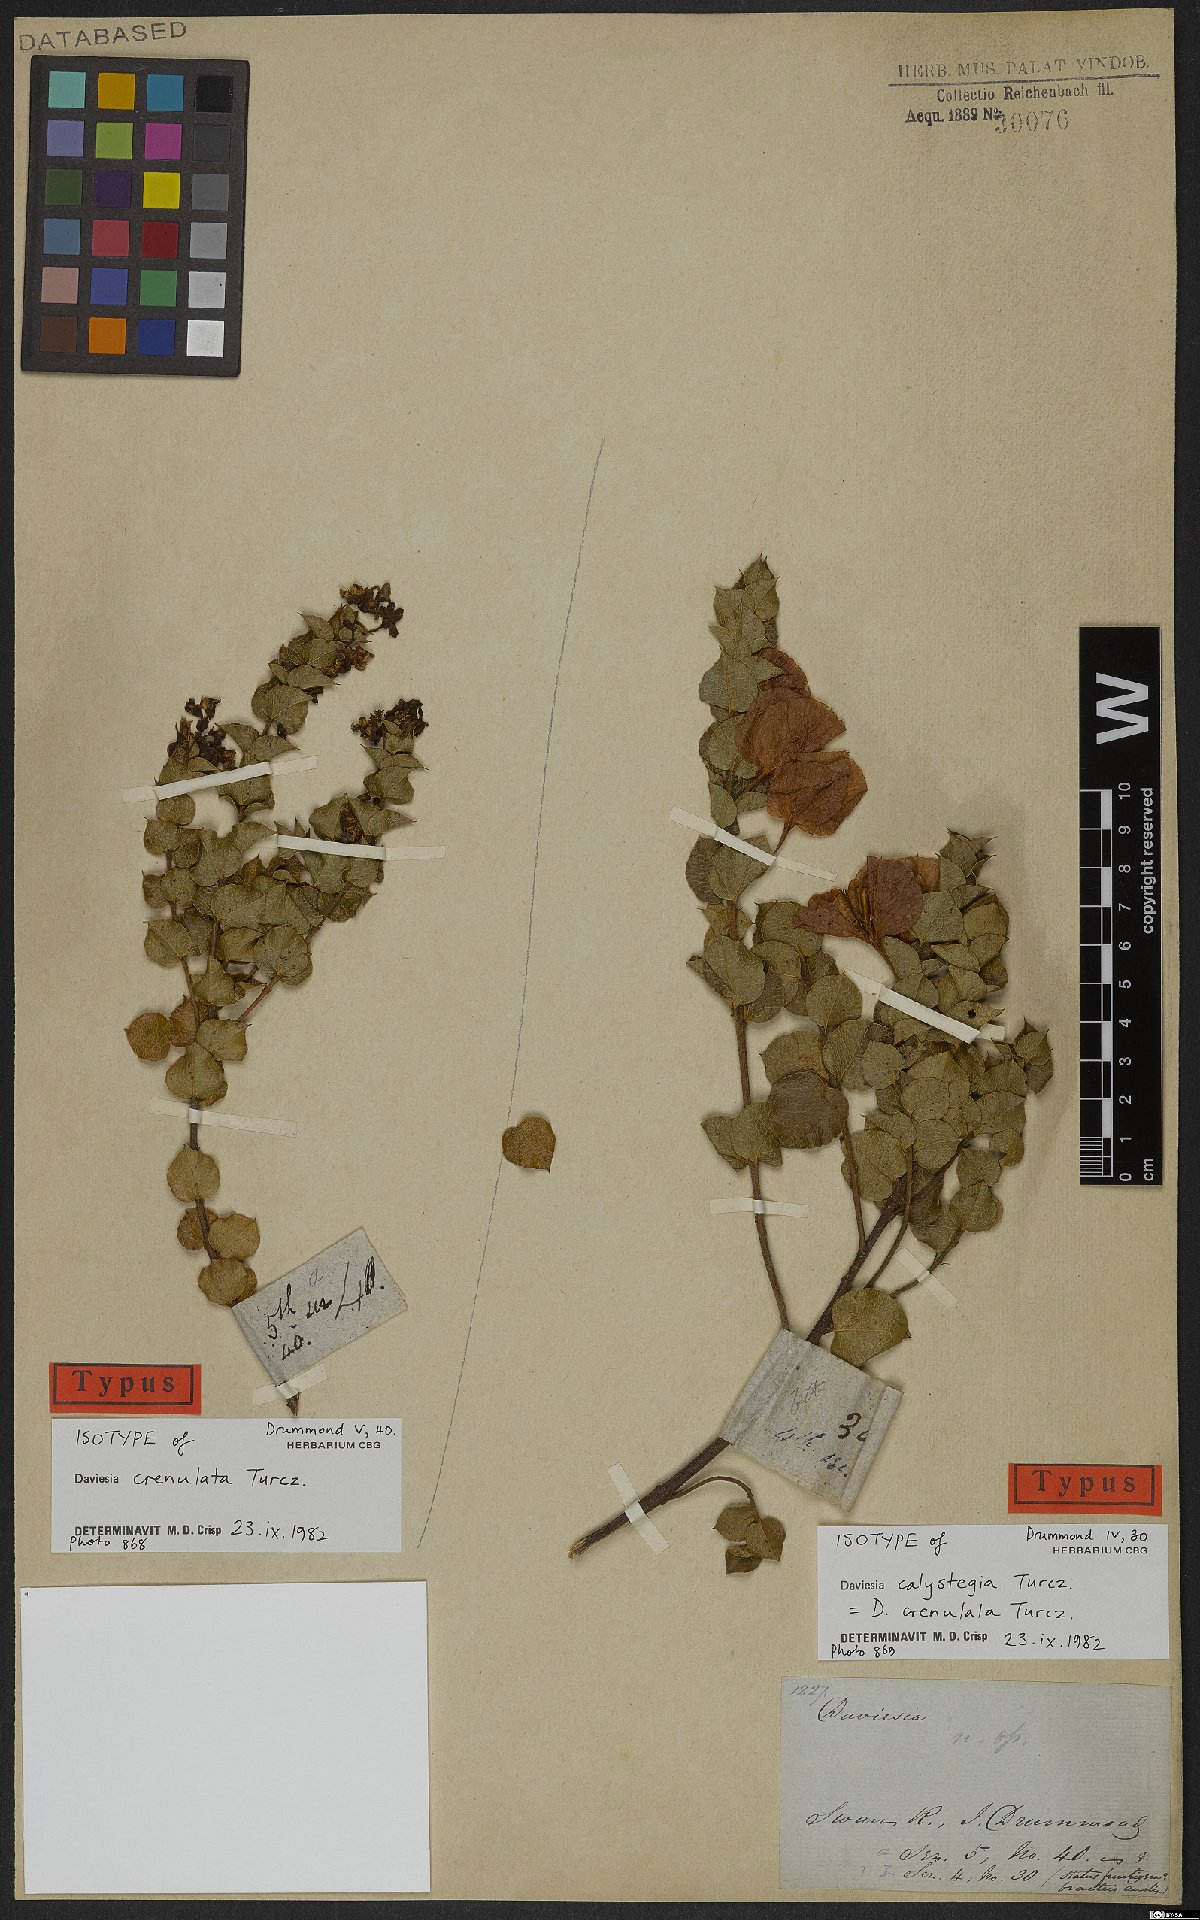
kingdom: Plantae
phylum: Tracheophyta
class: Magnoliopsida
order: Fabales
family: Fabaceae
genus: Daviesia
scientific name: Daviesia crenulata
